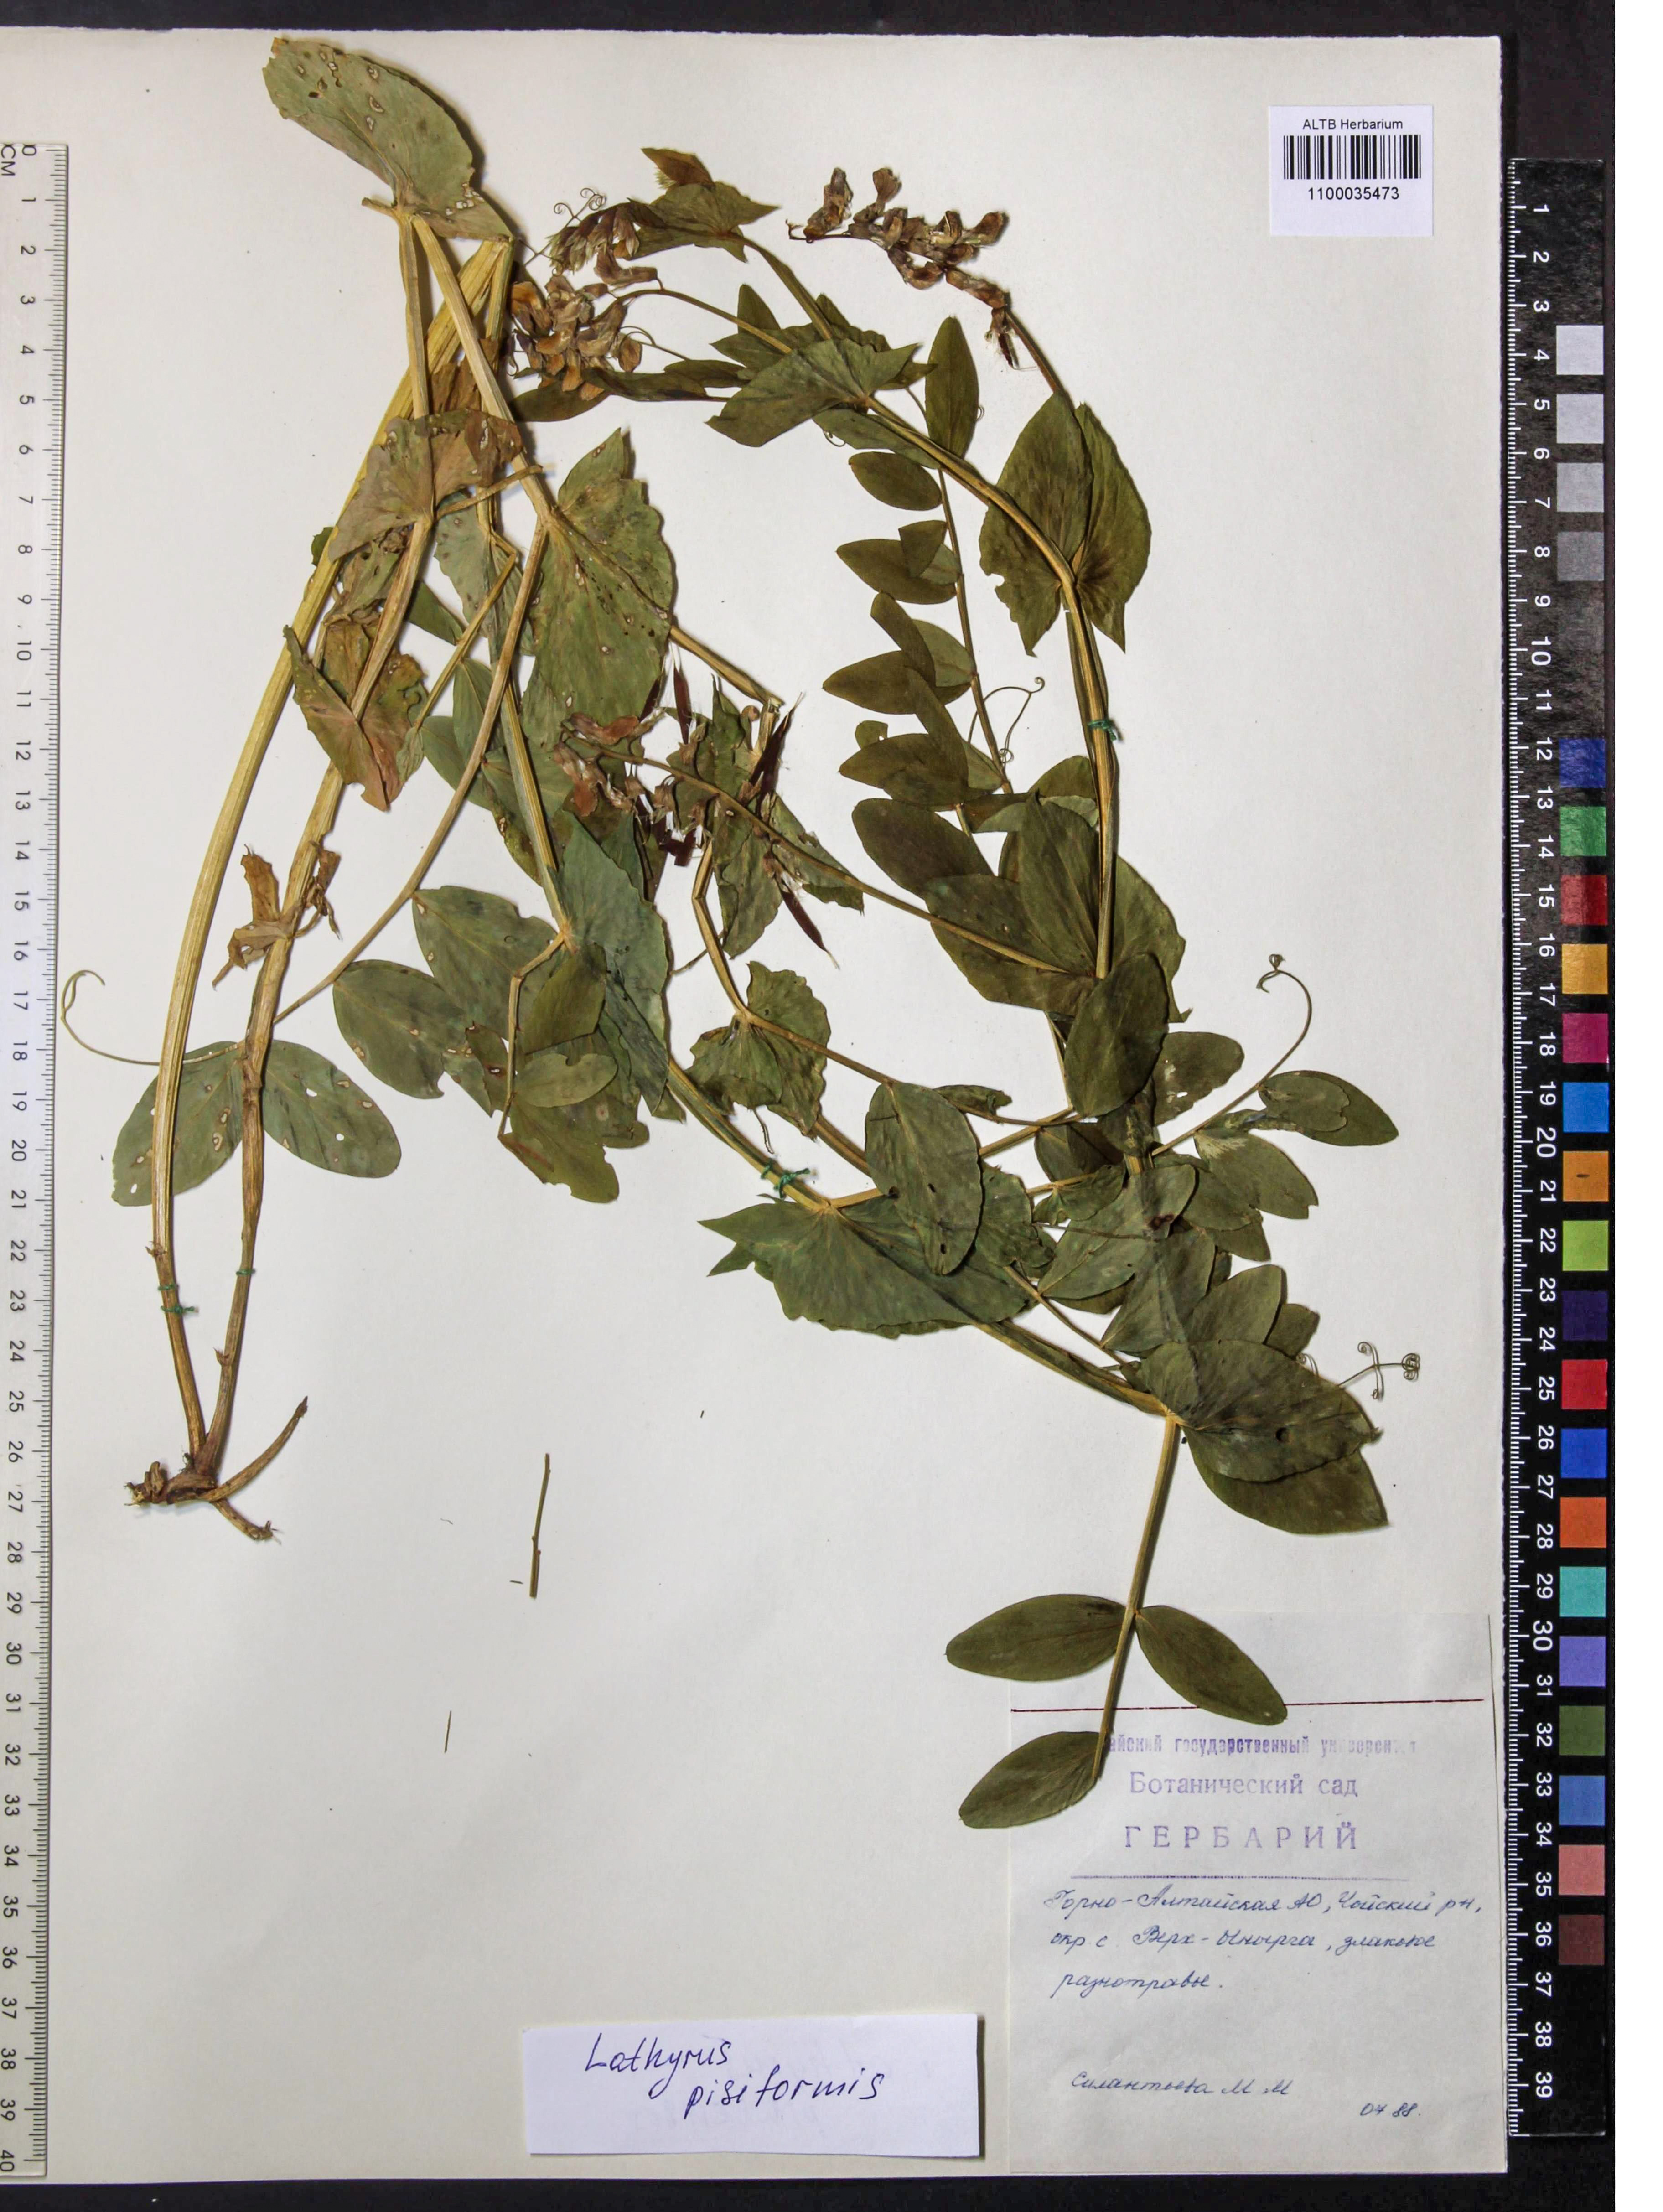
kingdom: Plantae
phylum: Tracheophyta
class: Magnoliopsida
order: Fabales
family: Fabaceae
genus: Lathyrus
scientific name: Lathyrus pisiformis
